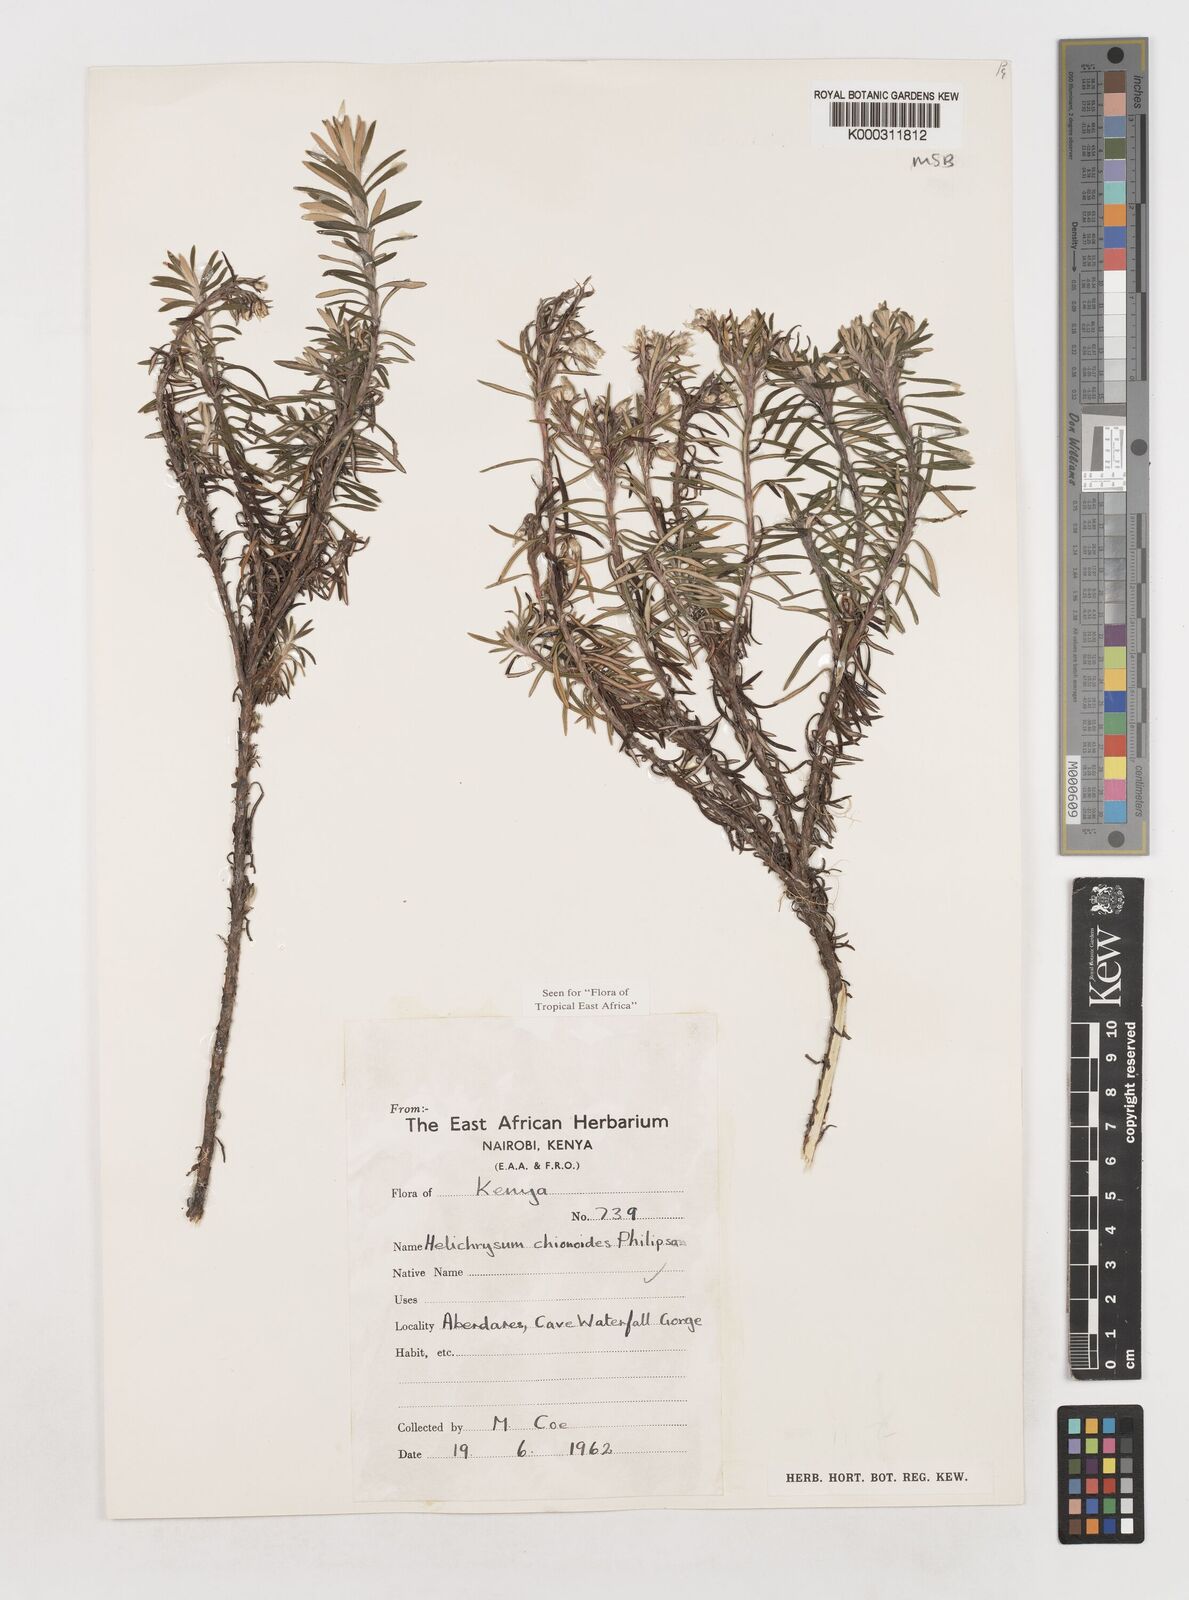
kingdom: Plantae
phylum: Tracheophyta
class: Magnoliopsida
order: Asterales
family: Asteraceae
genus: Helichrysum
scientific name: Helichrysum chionoides
